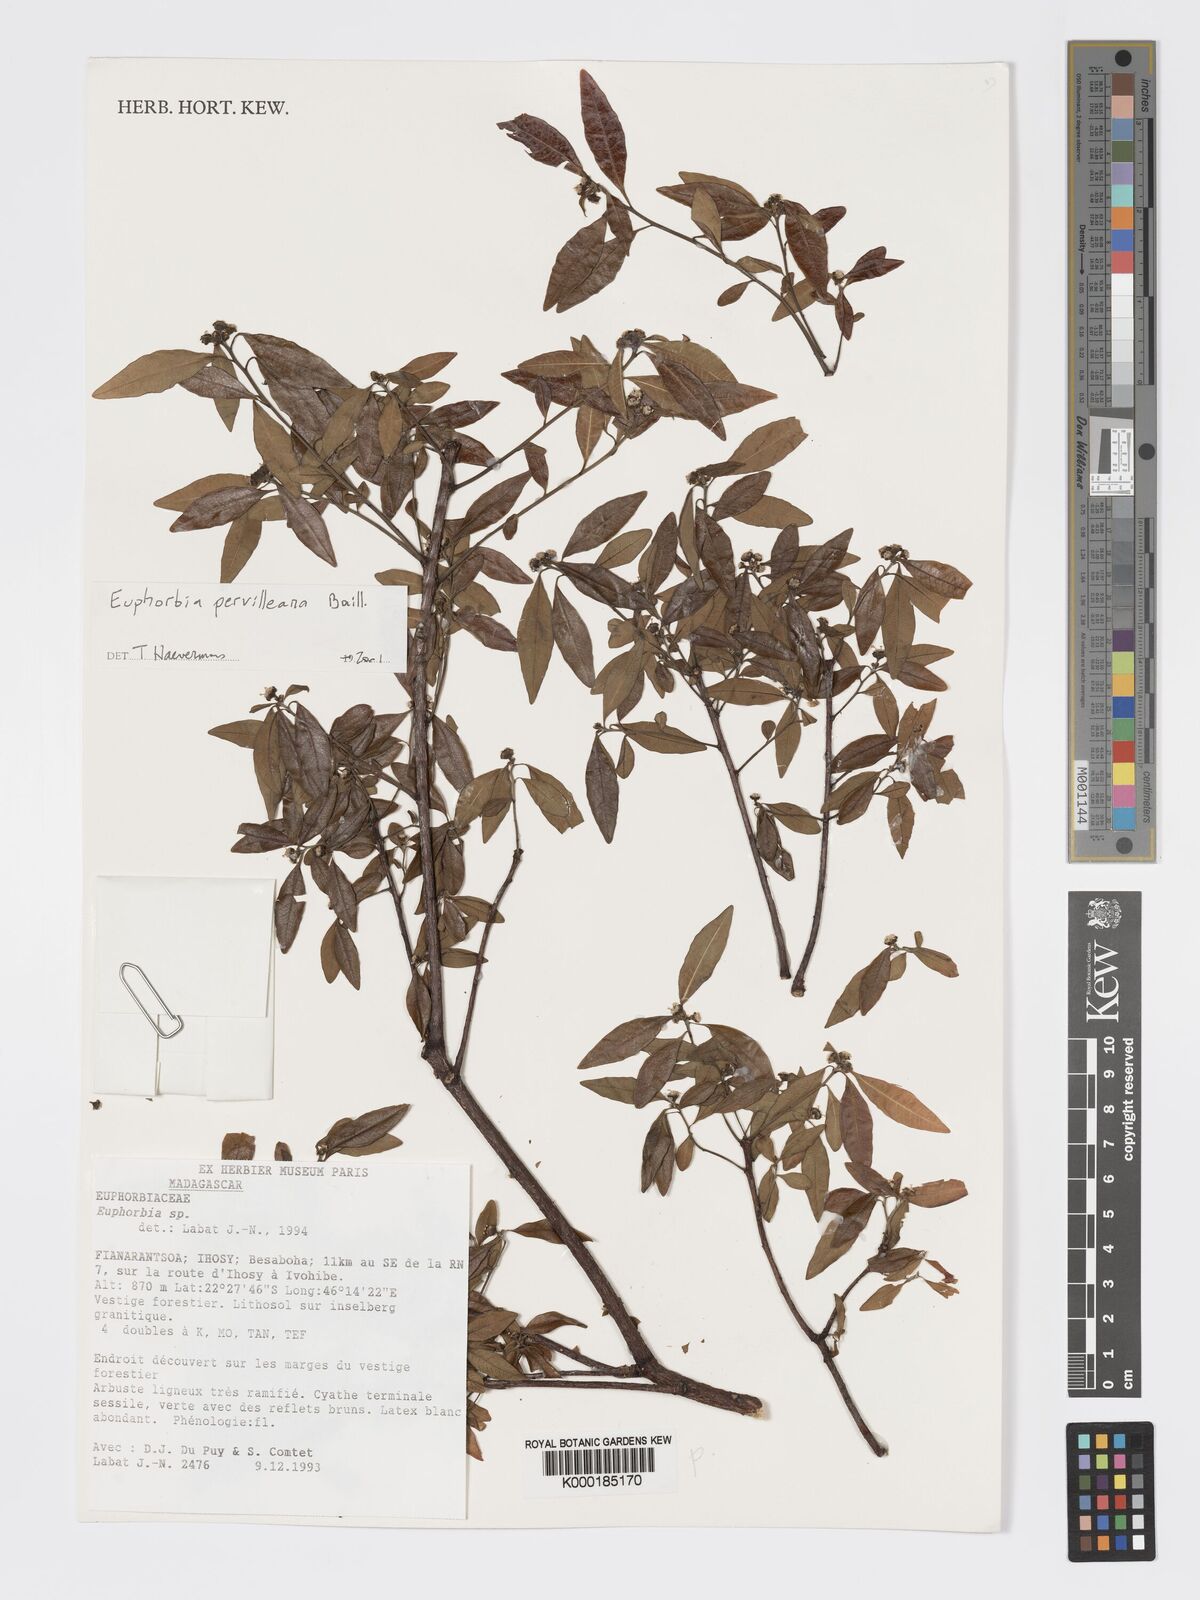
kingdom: Plantae
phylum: Tracheophyta
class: Magnoliopsida
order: Malpighiales
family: Euphorbiaceae
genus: Euphorbia
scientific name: Euphorbia pervilleana
